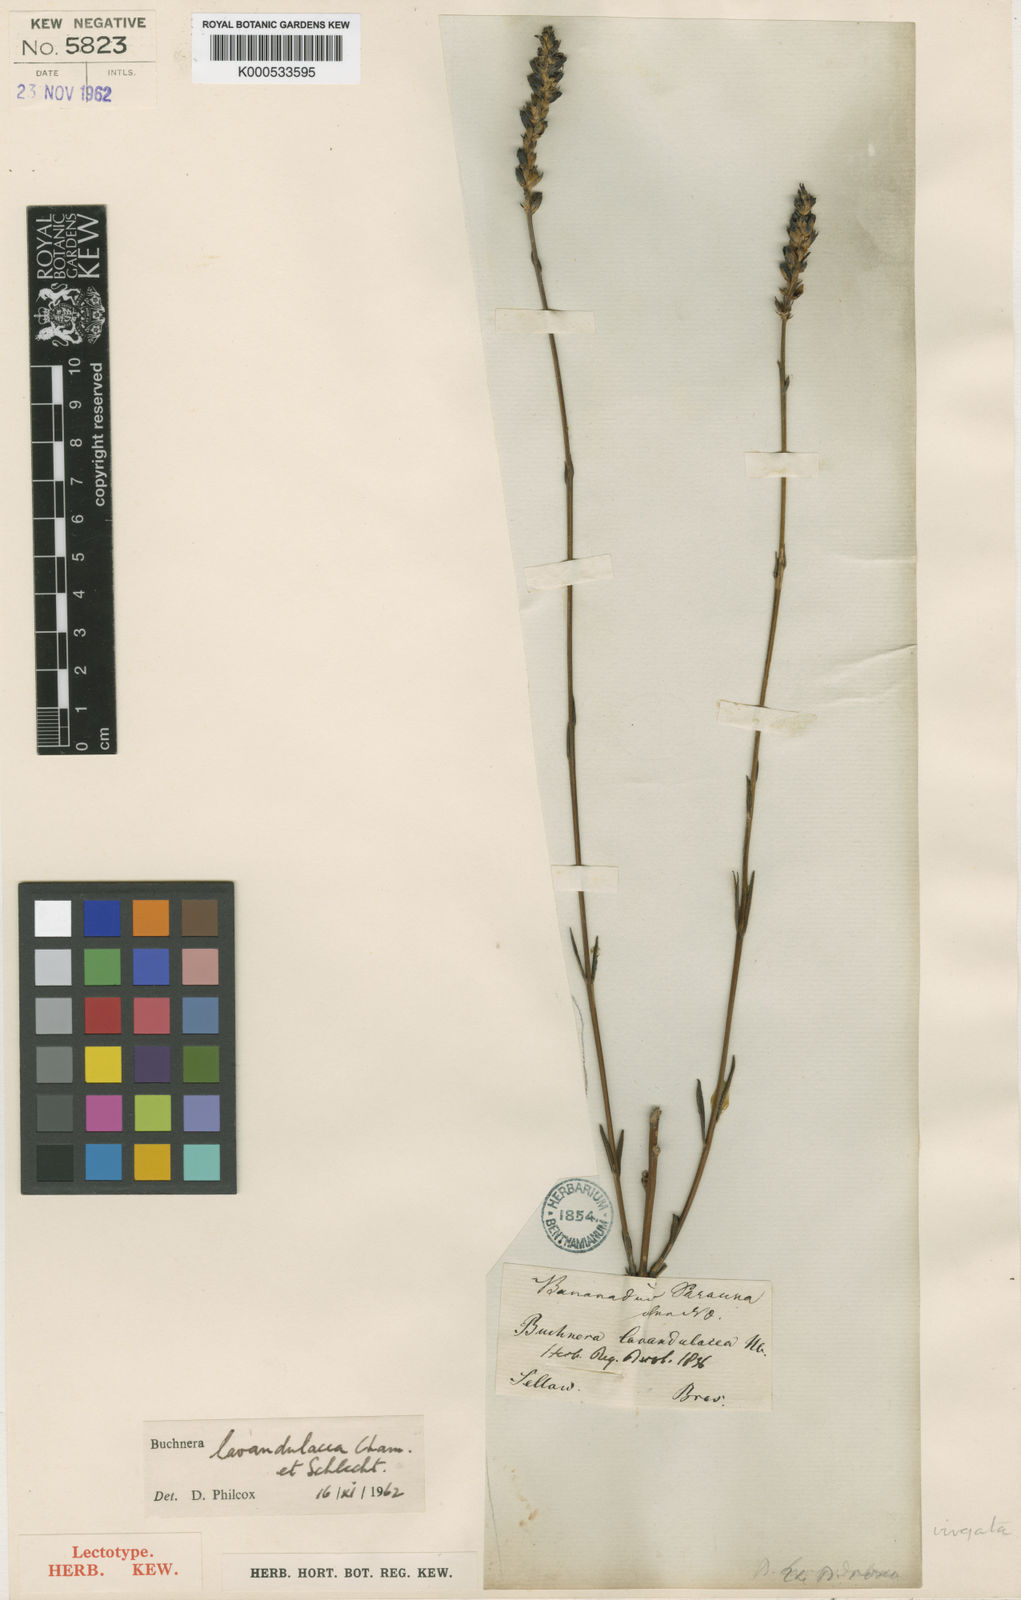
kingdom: Plantae
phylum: Tracheophyta
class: Magnoliopsida
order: Lamiales
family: Orobanchaceae
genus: Buchnera
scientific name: Buchnera virgata
